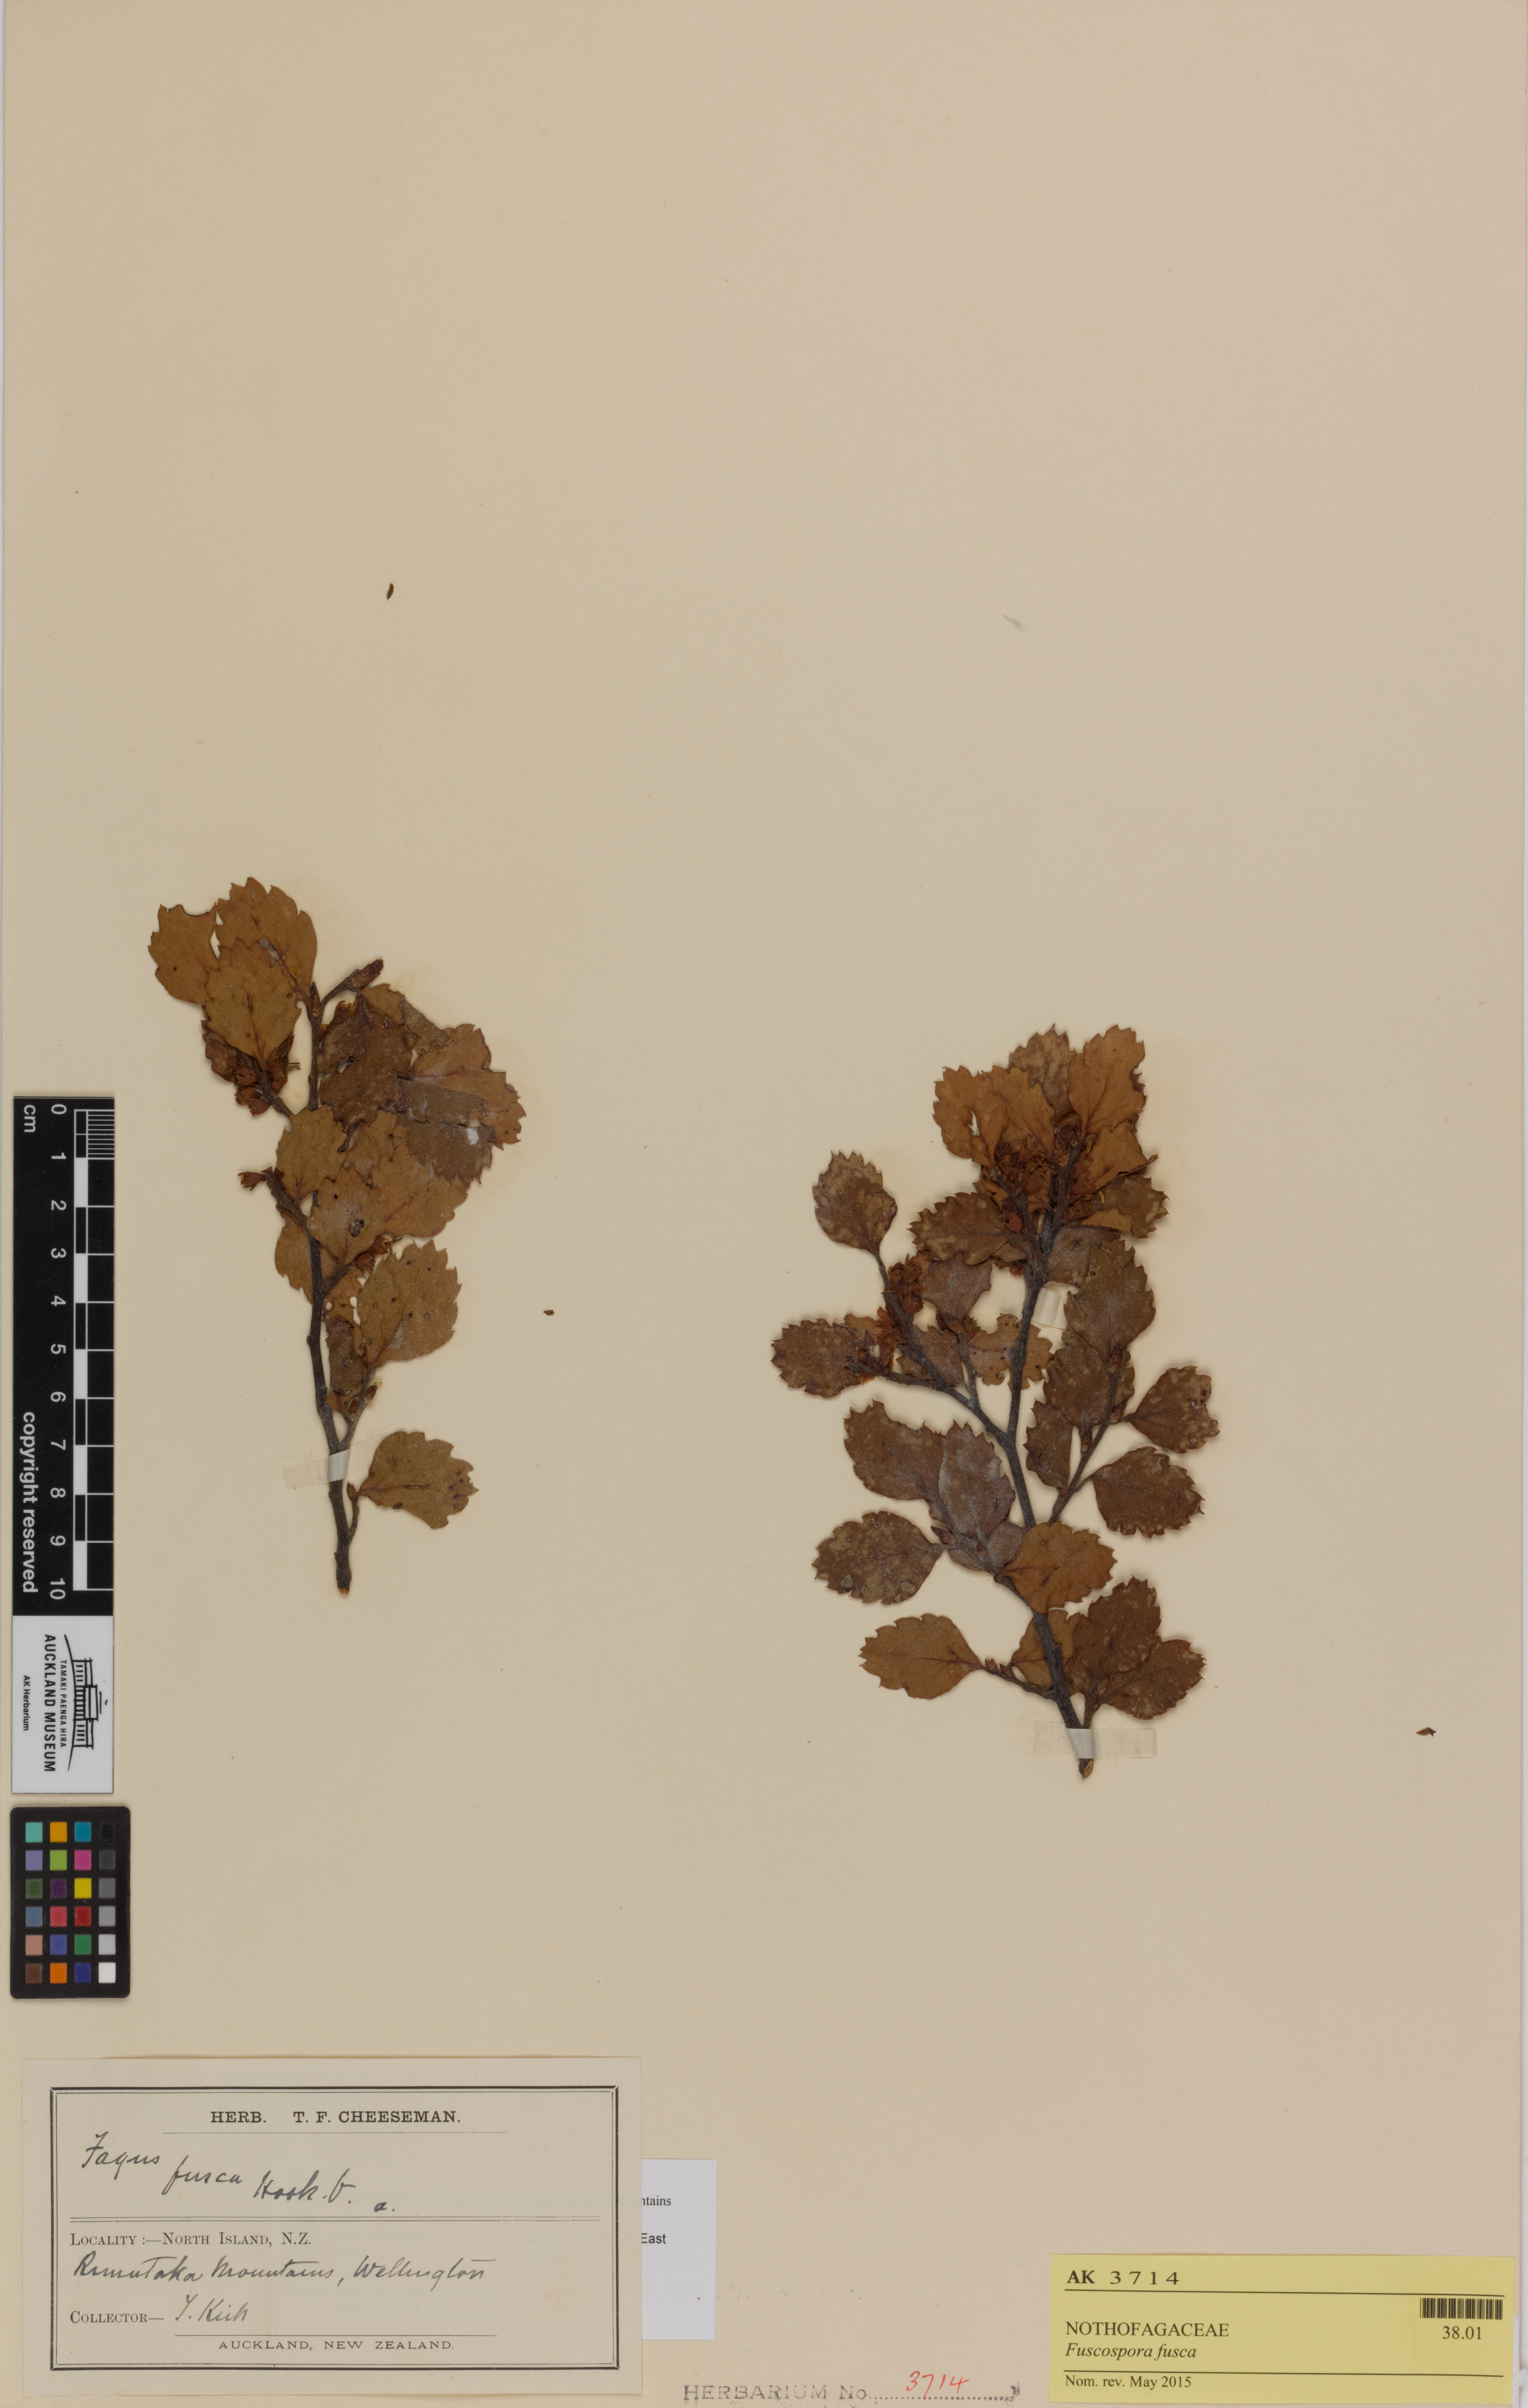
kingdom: Plantae
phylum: Tracheophyta
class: Magnoliopsida
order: Fagales
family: Nothofagaceae
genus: Nothofagus
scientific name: Nothofagus fusca
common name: Red beech
